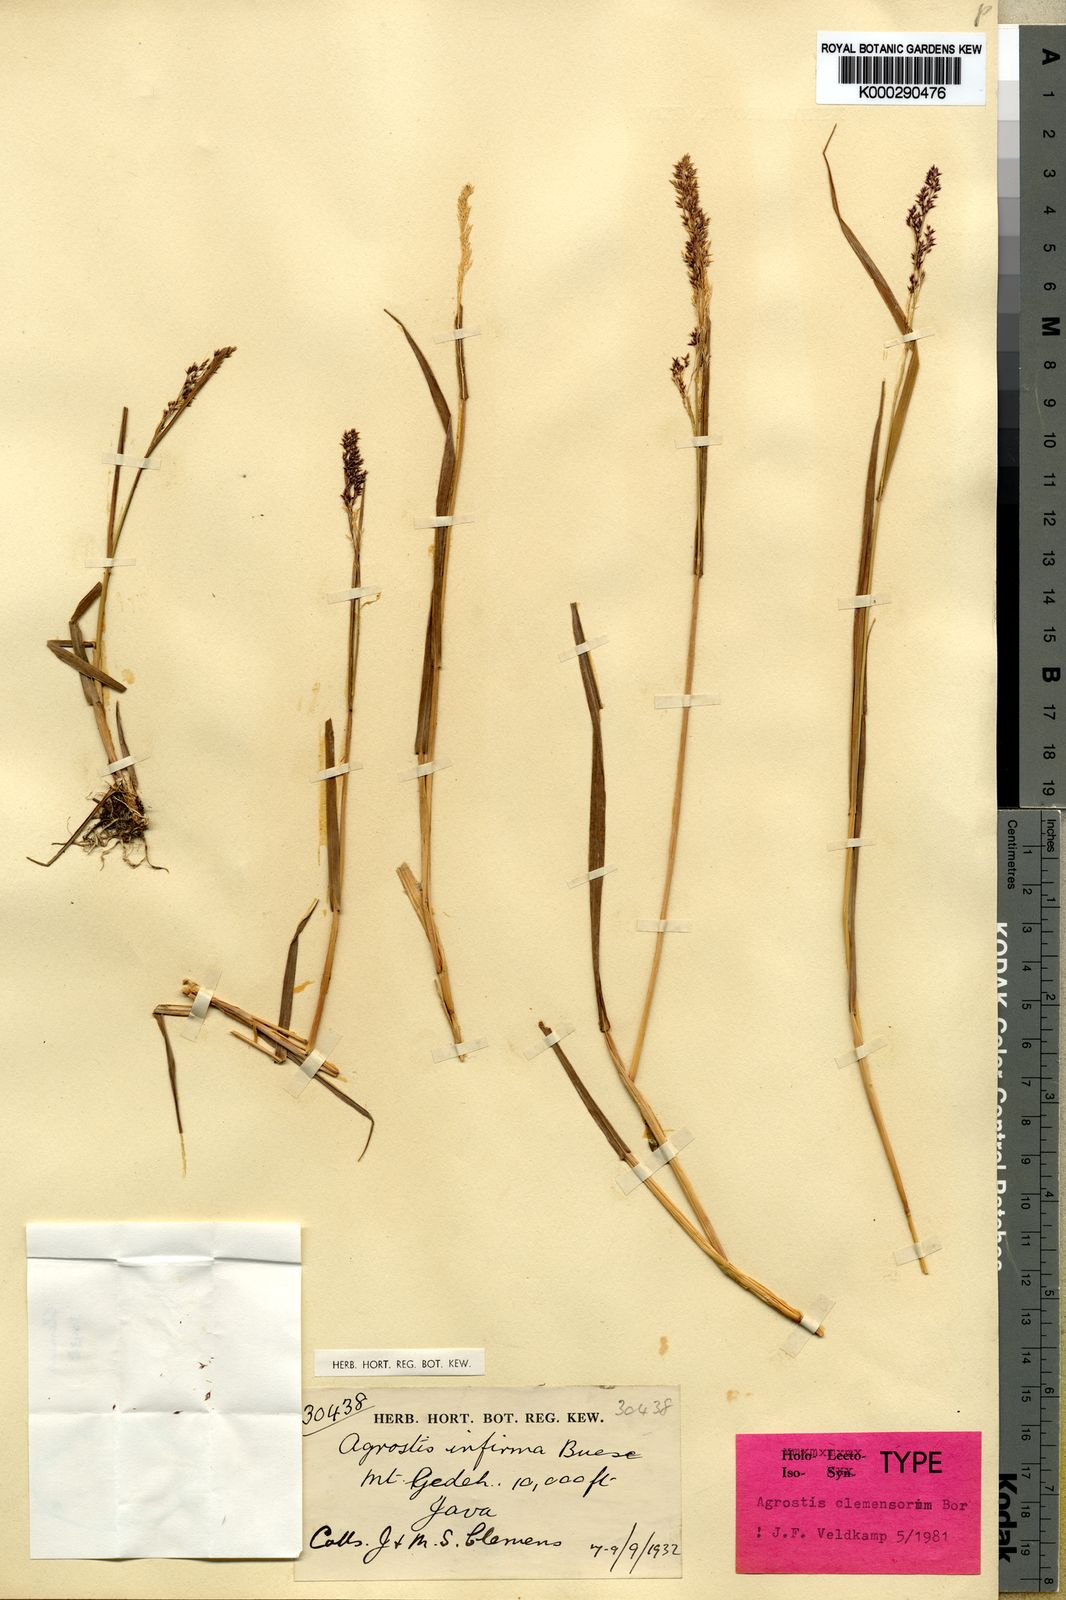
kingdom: Plantae
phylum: Tracheophyta
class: Liliopsida
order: Poales
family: Poaceae
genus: Agrostis
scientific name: Agrostis
